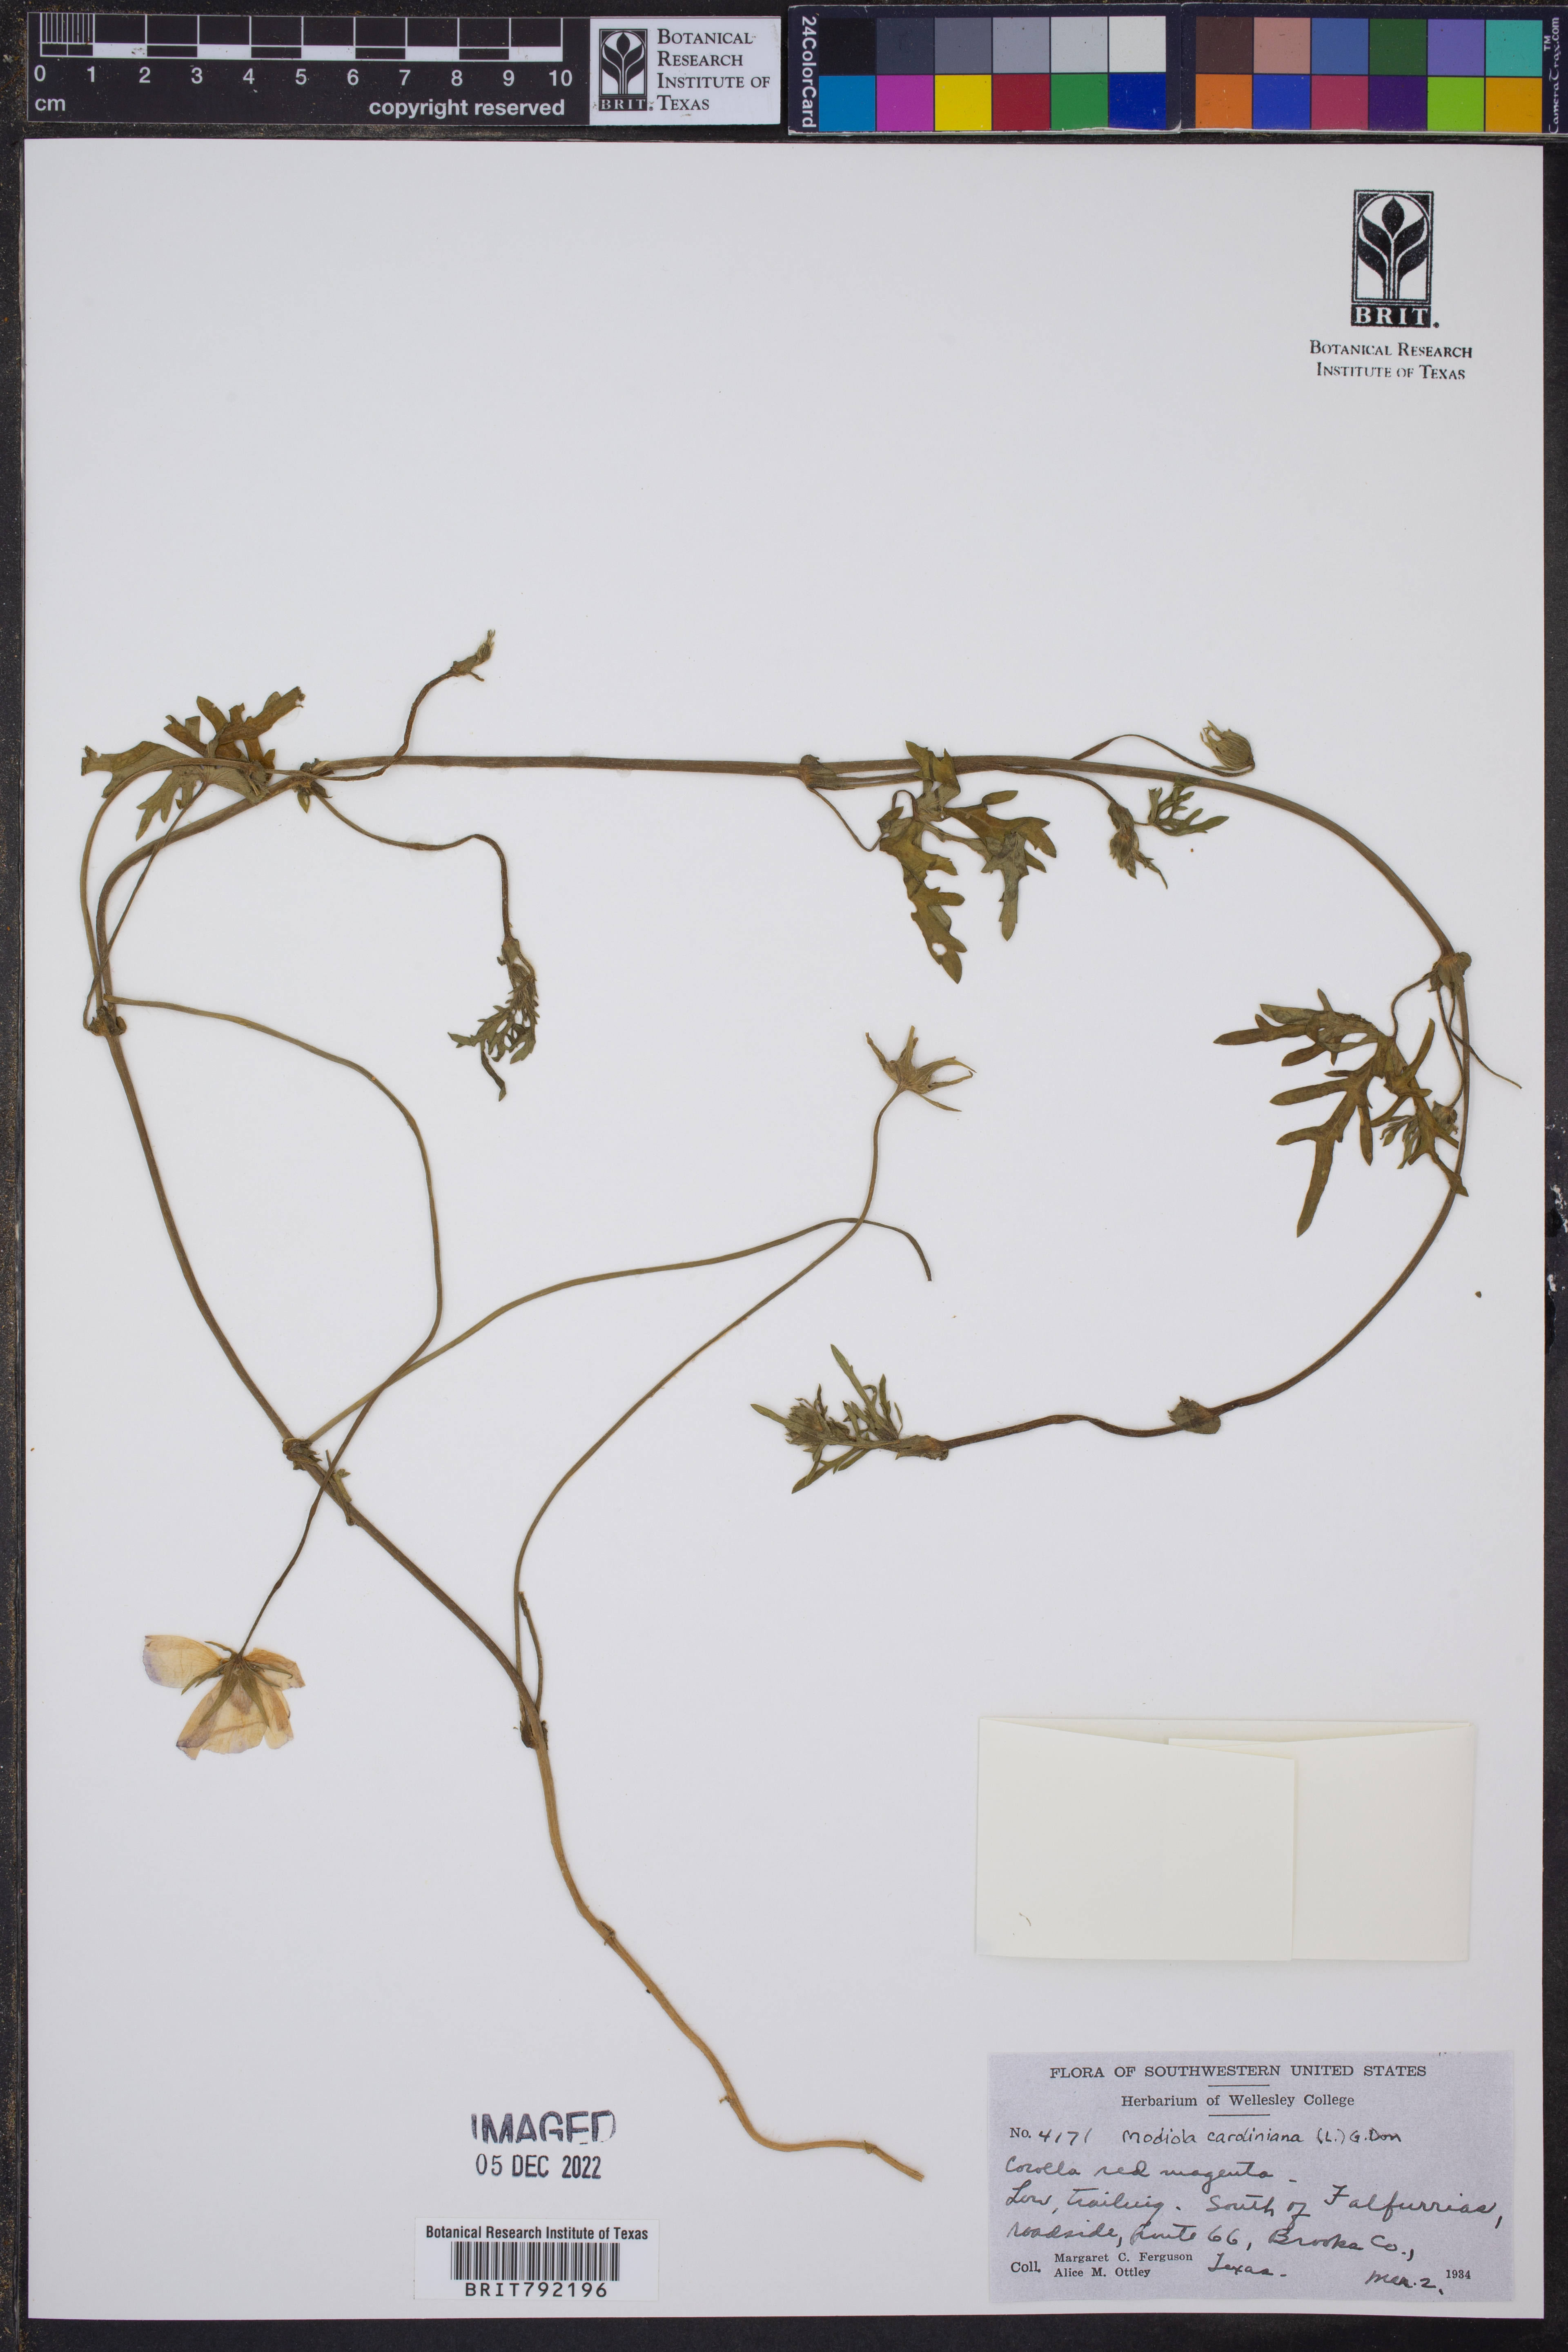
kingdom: Plantae
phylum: Tracheophyta
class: Magnoliopsida
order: Malvales
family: Malvaceae
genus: Modiola
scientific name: Modiola caroliniana
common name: Carolina bristlemallow
